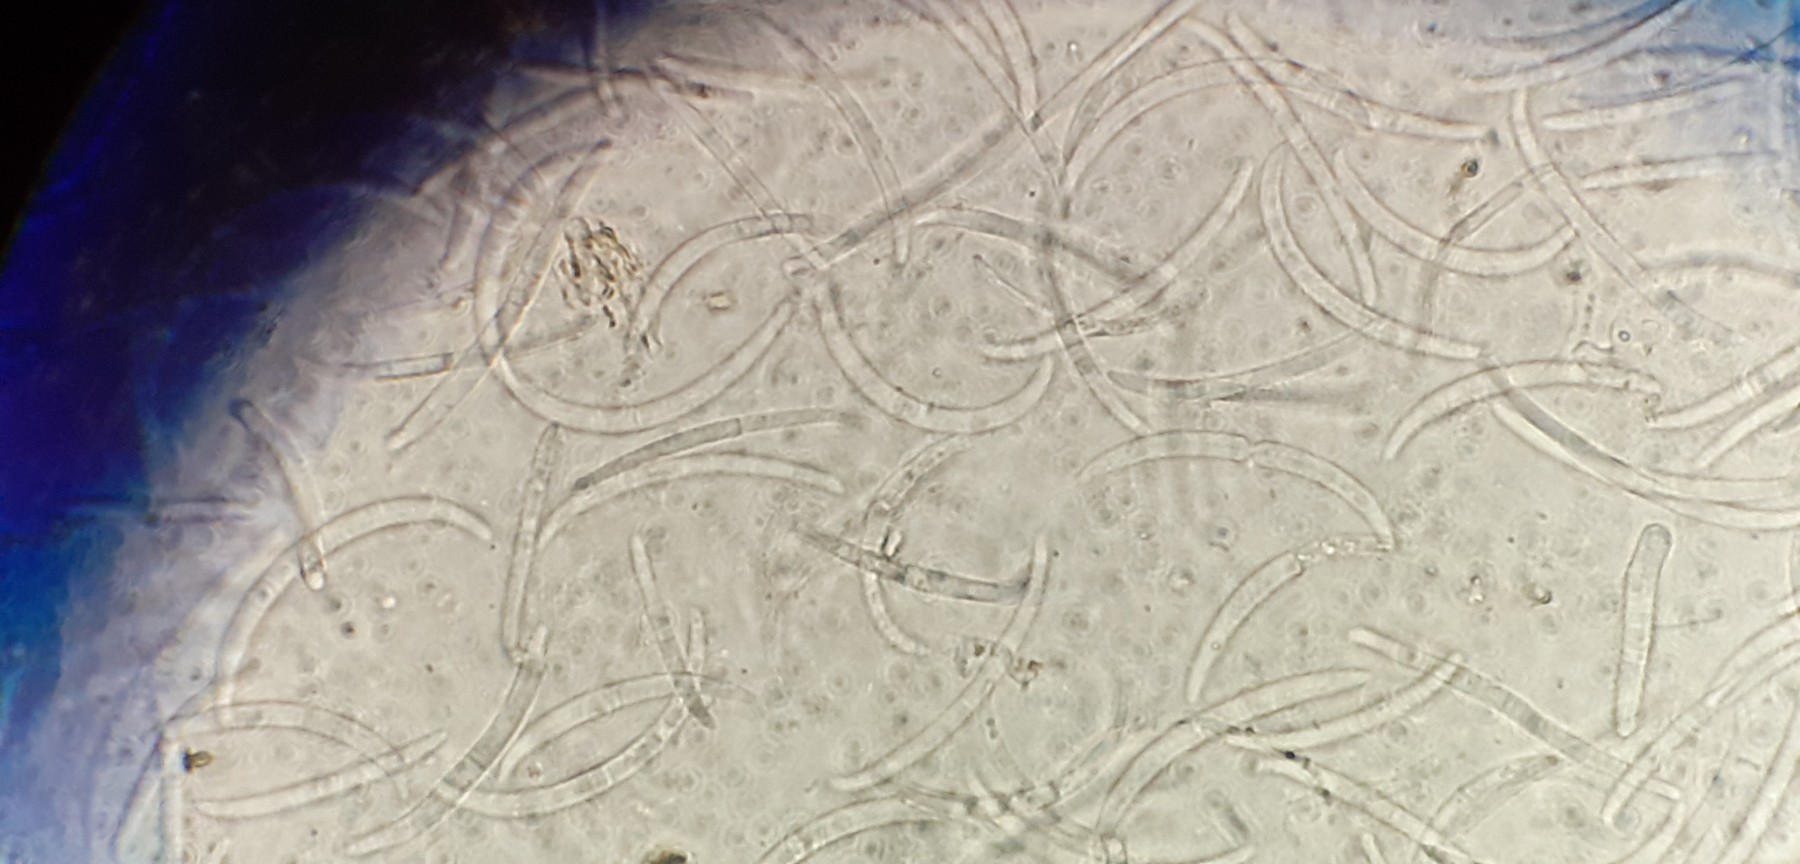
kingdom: Fungi
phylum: Ascomycota
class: Sordariomycetes
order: Hypocreales
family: Nectriaceae
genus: Fusarium
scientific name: Fusarium
